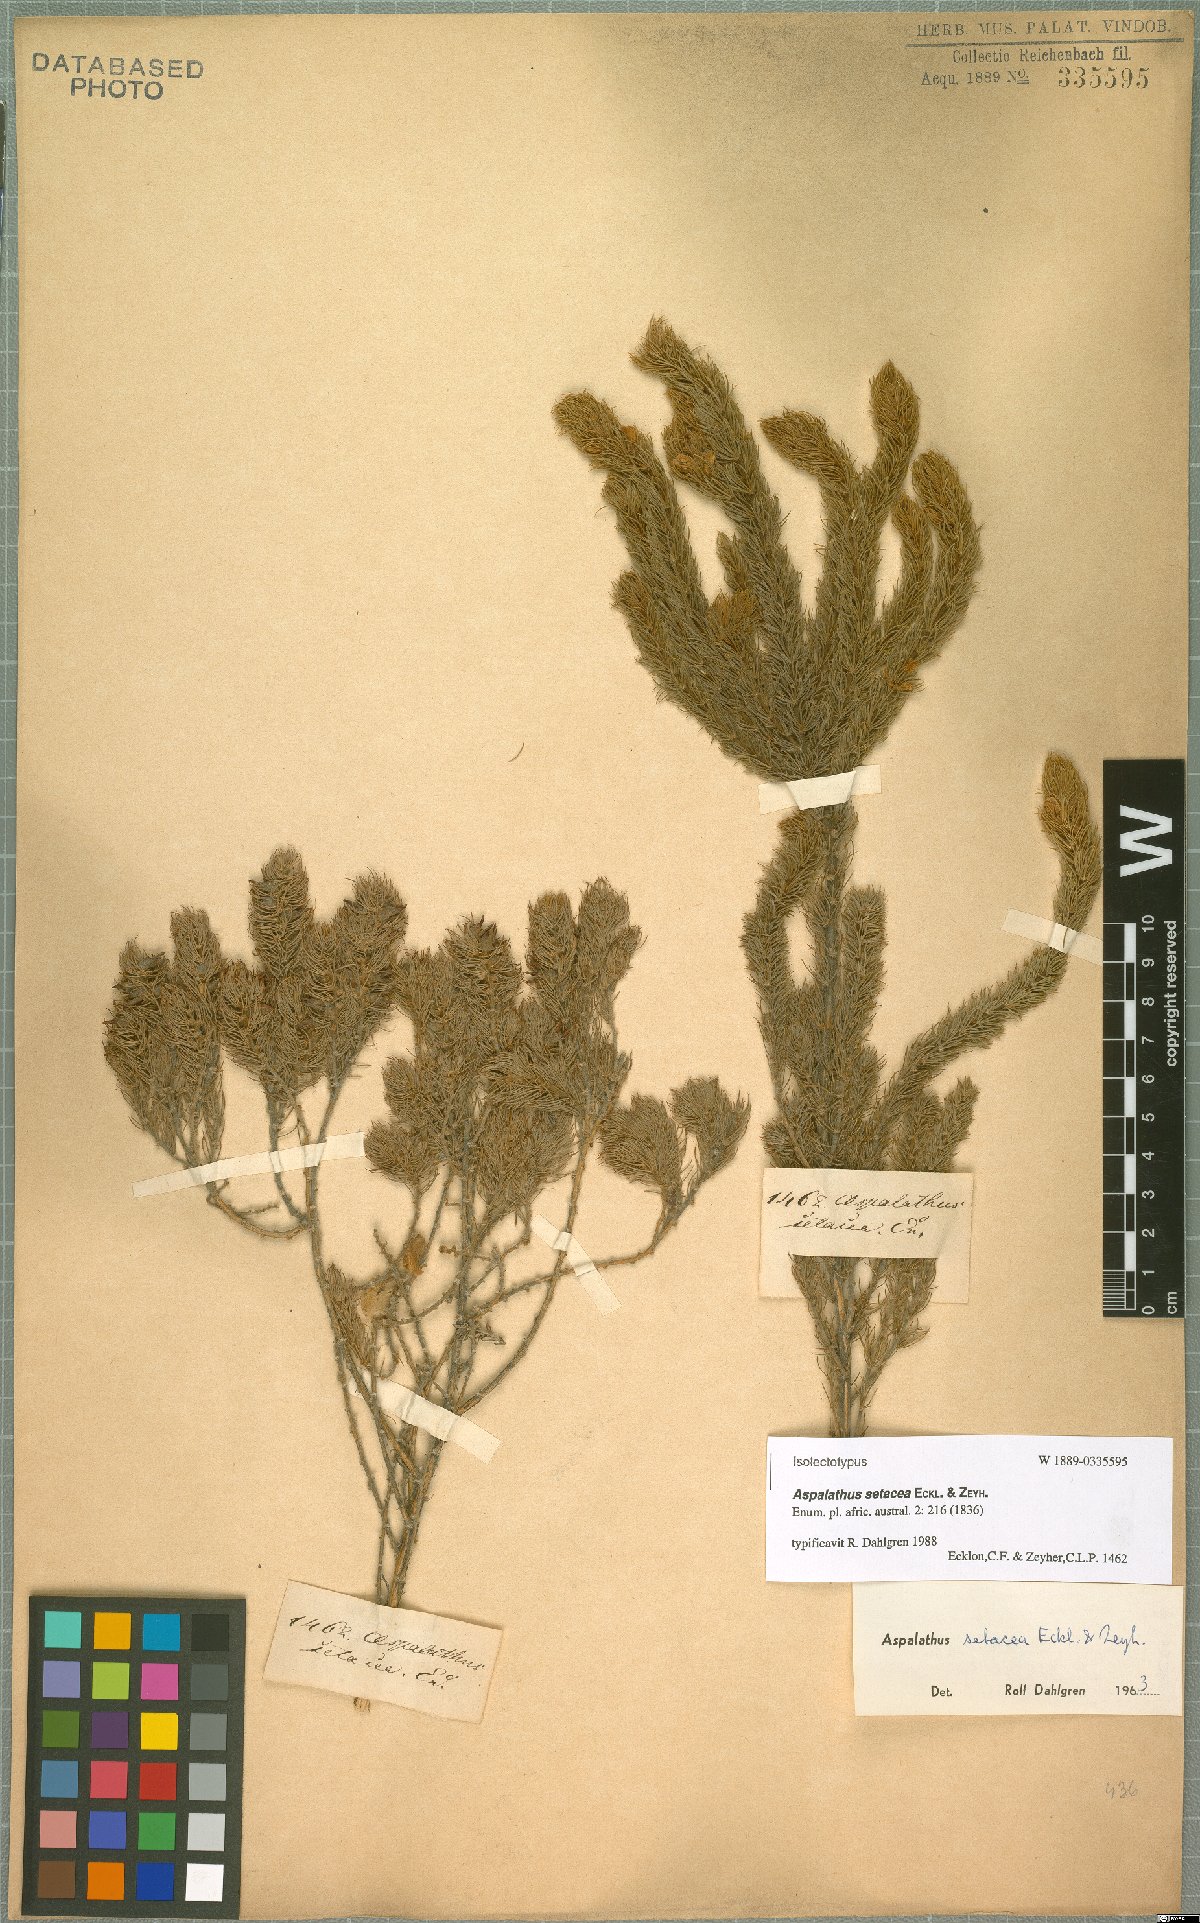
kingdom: Plantae
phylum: Tracheophyta
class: Magnoliopsida
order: Fabales
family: Fabaceae
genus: Aspalathus
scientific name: Aspalathus setacea
